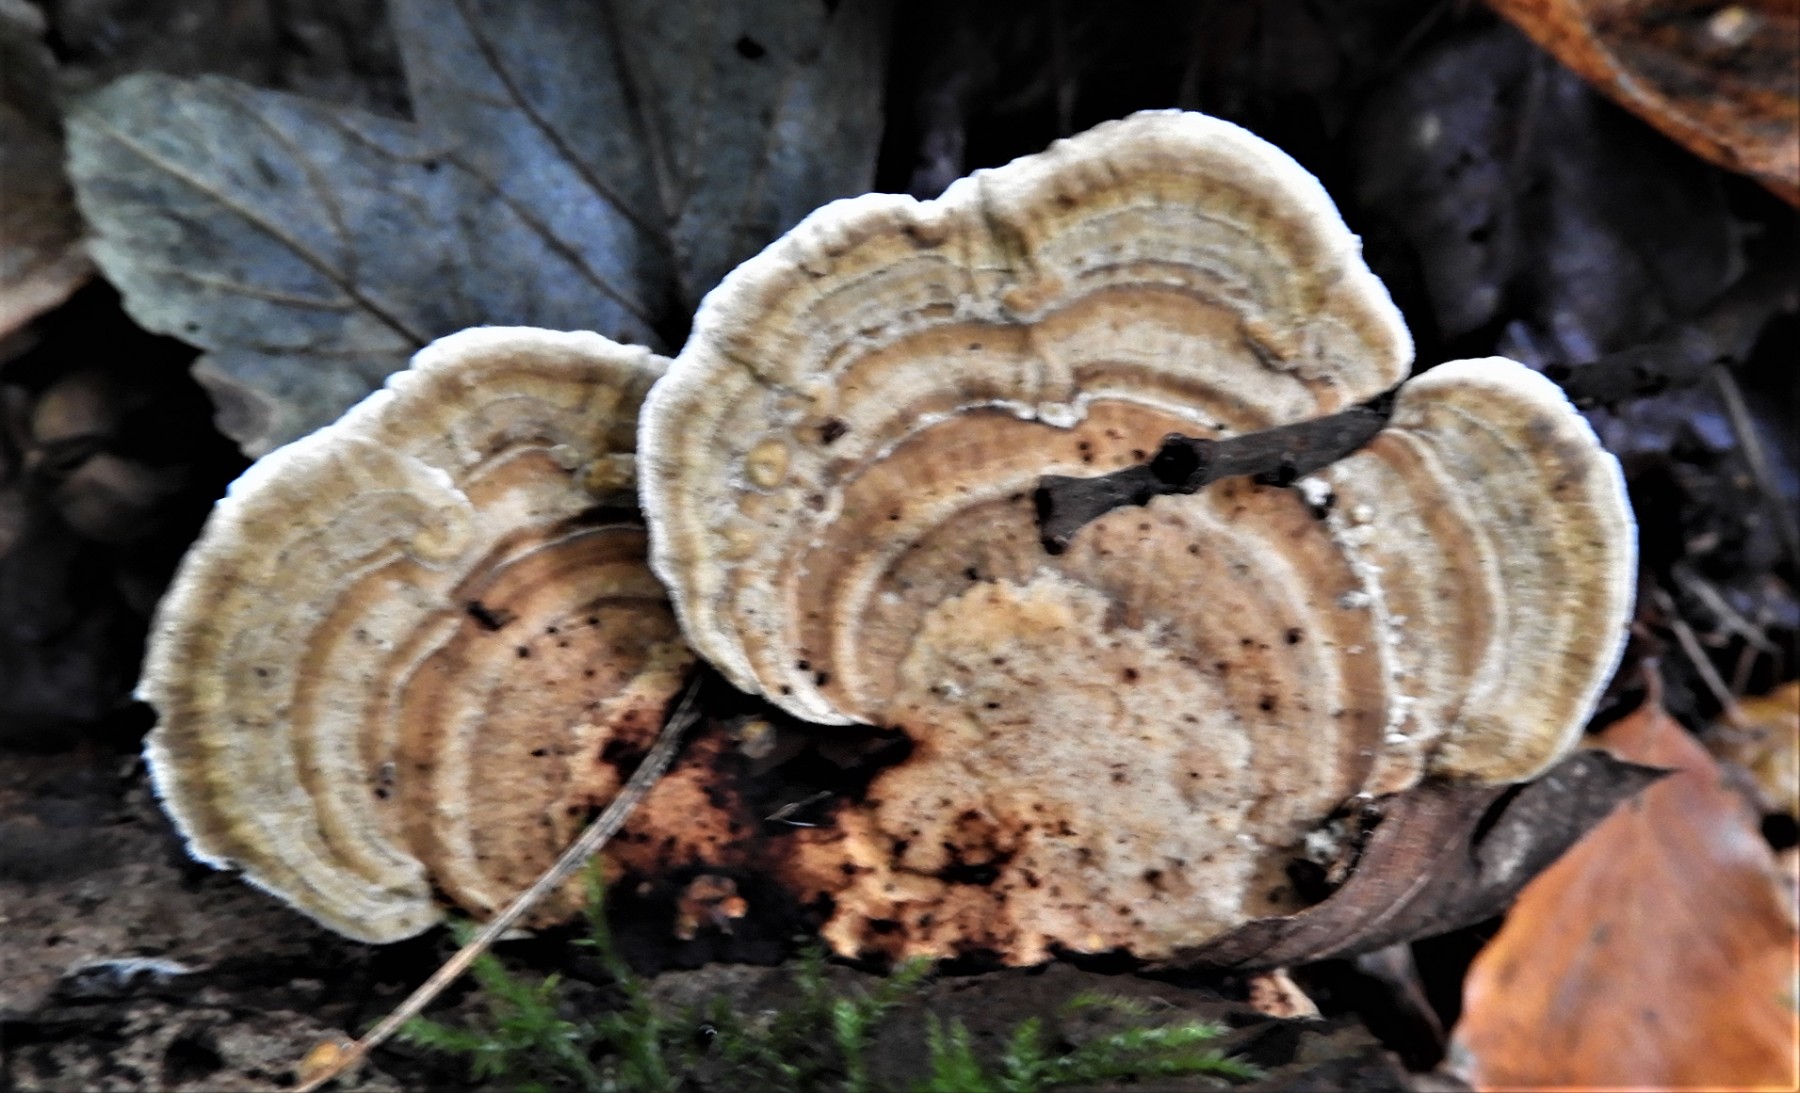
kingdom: Fungi
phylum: Basidiomycota
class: Agaricomycetes
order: Polyporales
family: Polyporaceae
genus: Lenzites
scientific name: Lenzites betulinus
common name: birke-læderporesvamp
